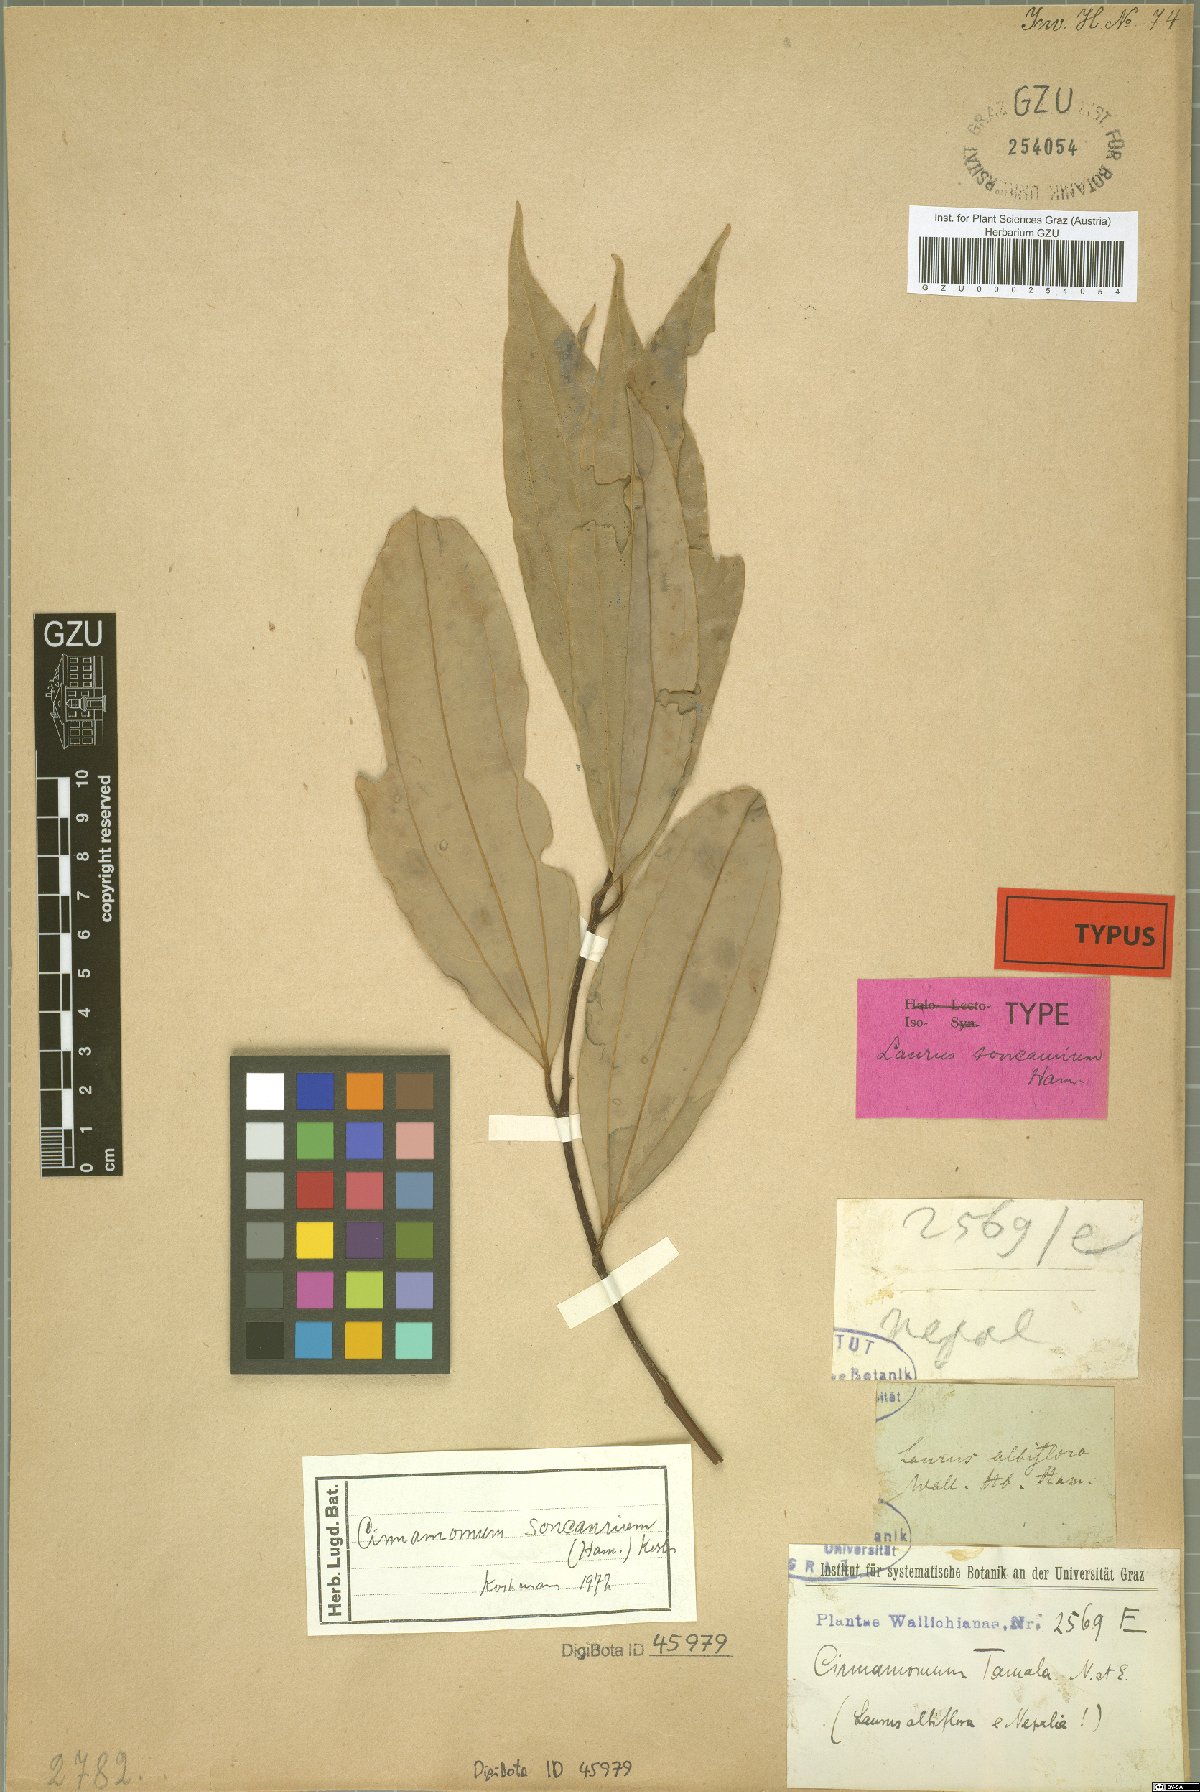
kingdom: Plantae
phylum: Tracheophyta
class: Magnoliopsida
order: Laurales
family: Lauraceae
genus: Cinnamomum
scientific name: Cinnamomum bejolghota
